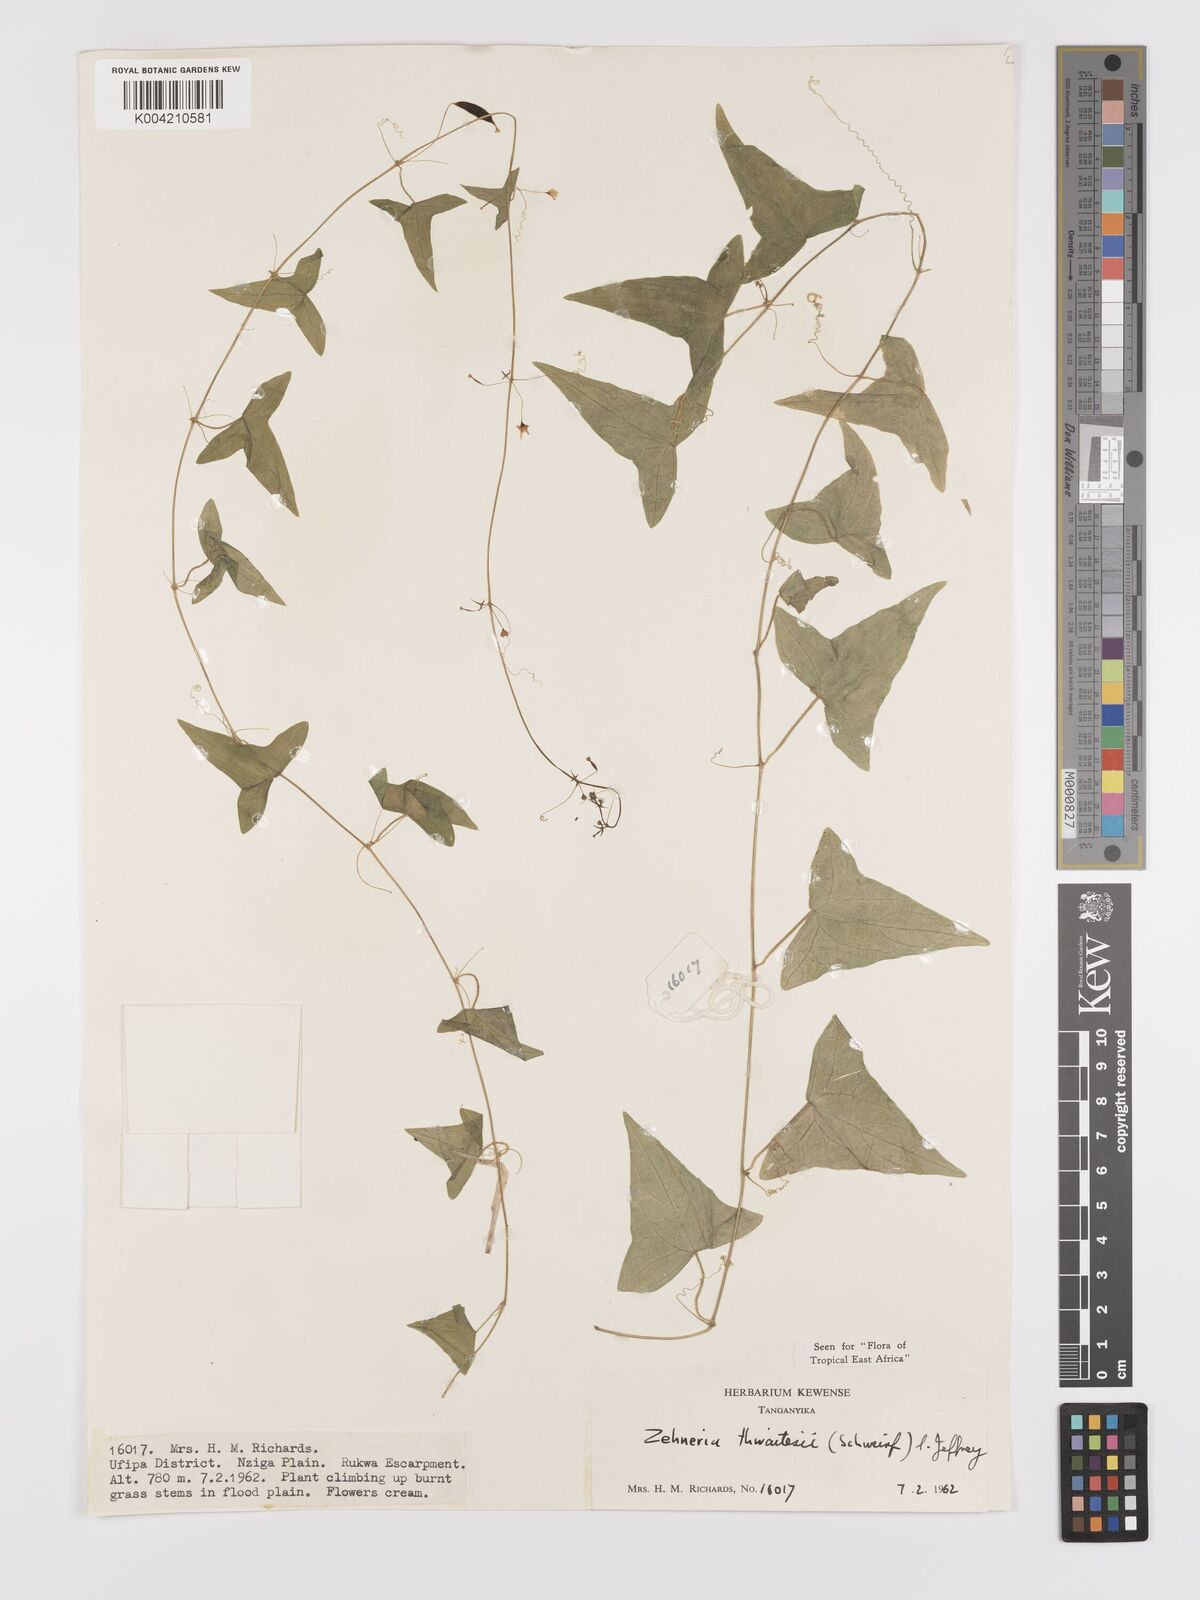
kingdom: Plantae
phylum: Tracheophyta
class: Magnoliopsida
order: Cucurbitales
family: Cucurbitaceae
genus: Zehneria
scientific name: Zehneria thwaitesii
